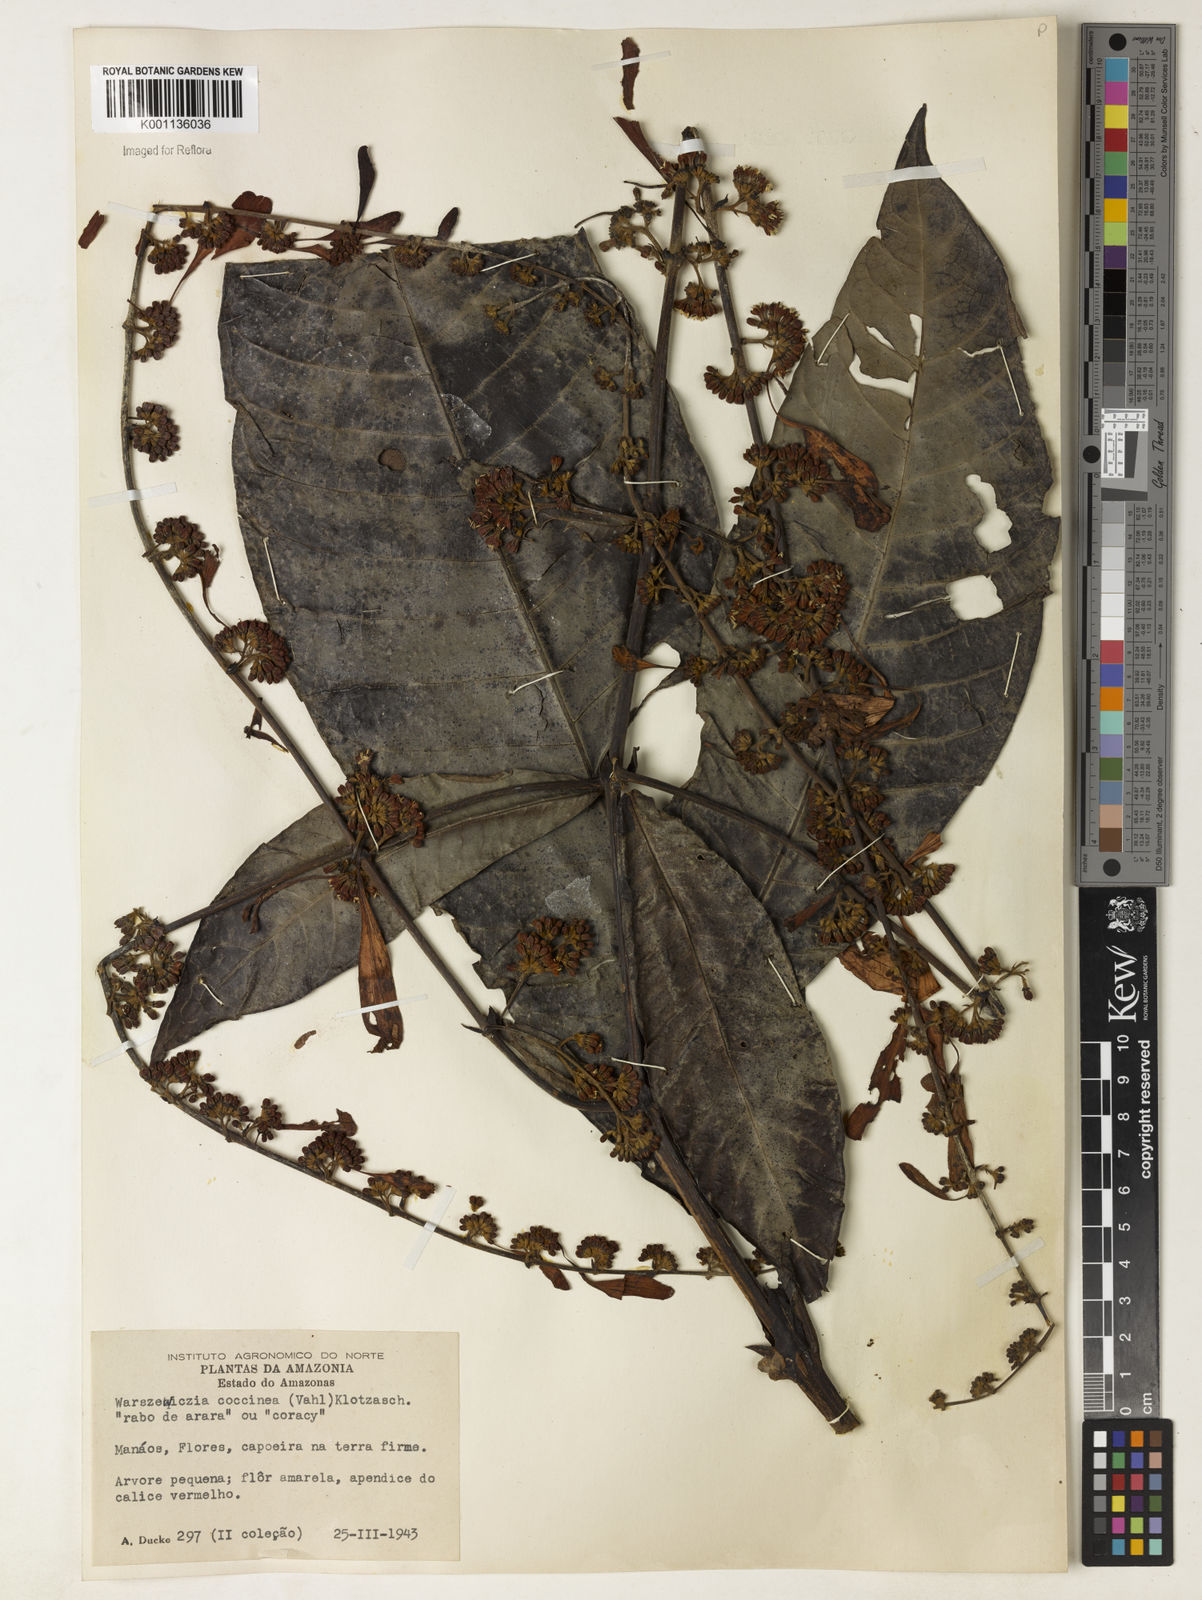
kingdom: Plantae
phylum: Tracheophyta
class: Magnoliopsida
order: Gentianales
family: Rubiaceae
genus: Warszewiczia
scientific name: Warszewiczia coccinea
